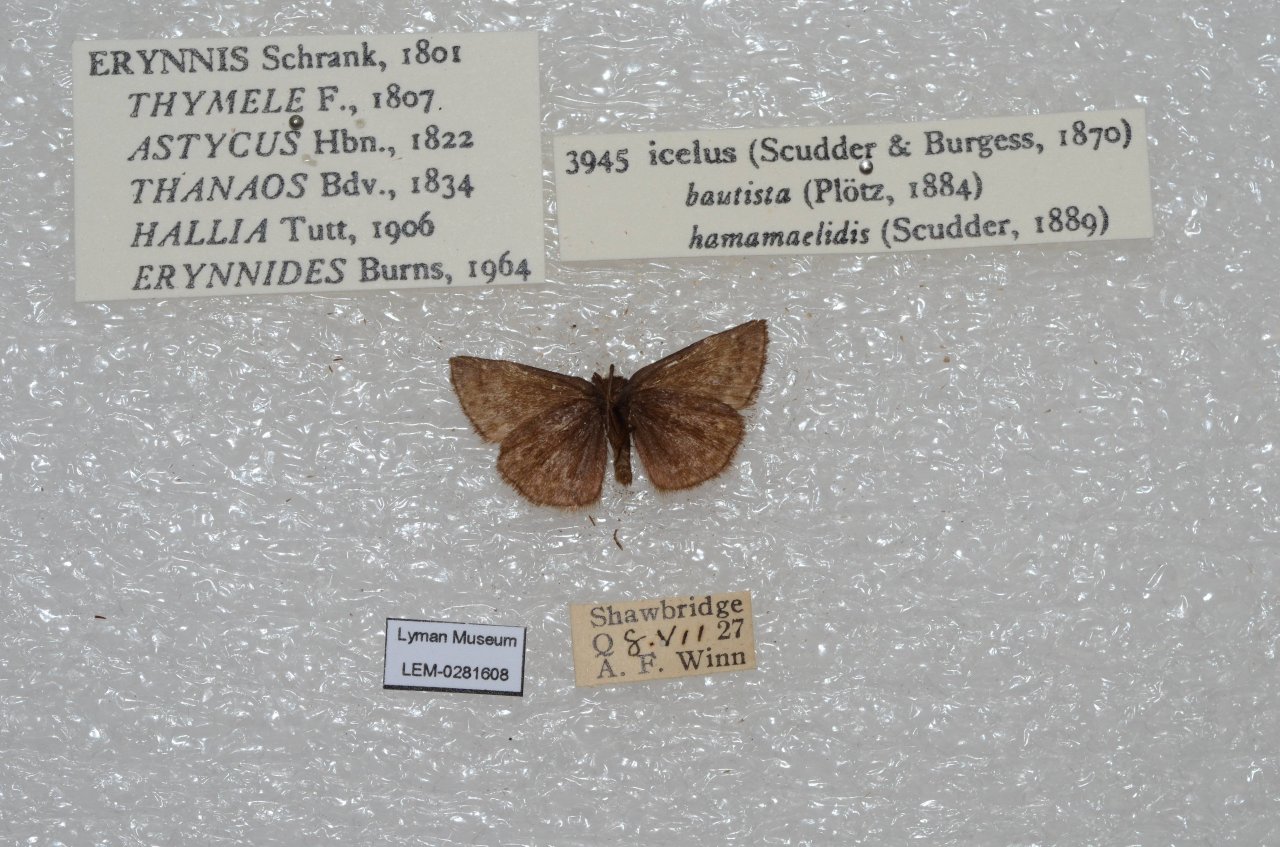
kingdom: Animalia
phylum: Arthropoda
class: Insecta
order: Lepidoptera
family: Hesperiidae
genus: Erynnis
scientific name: Erynnis icelus
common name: Dreamy Duskywing
